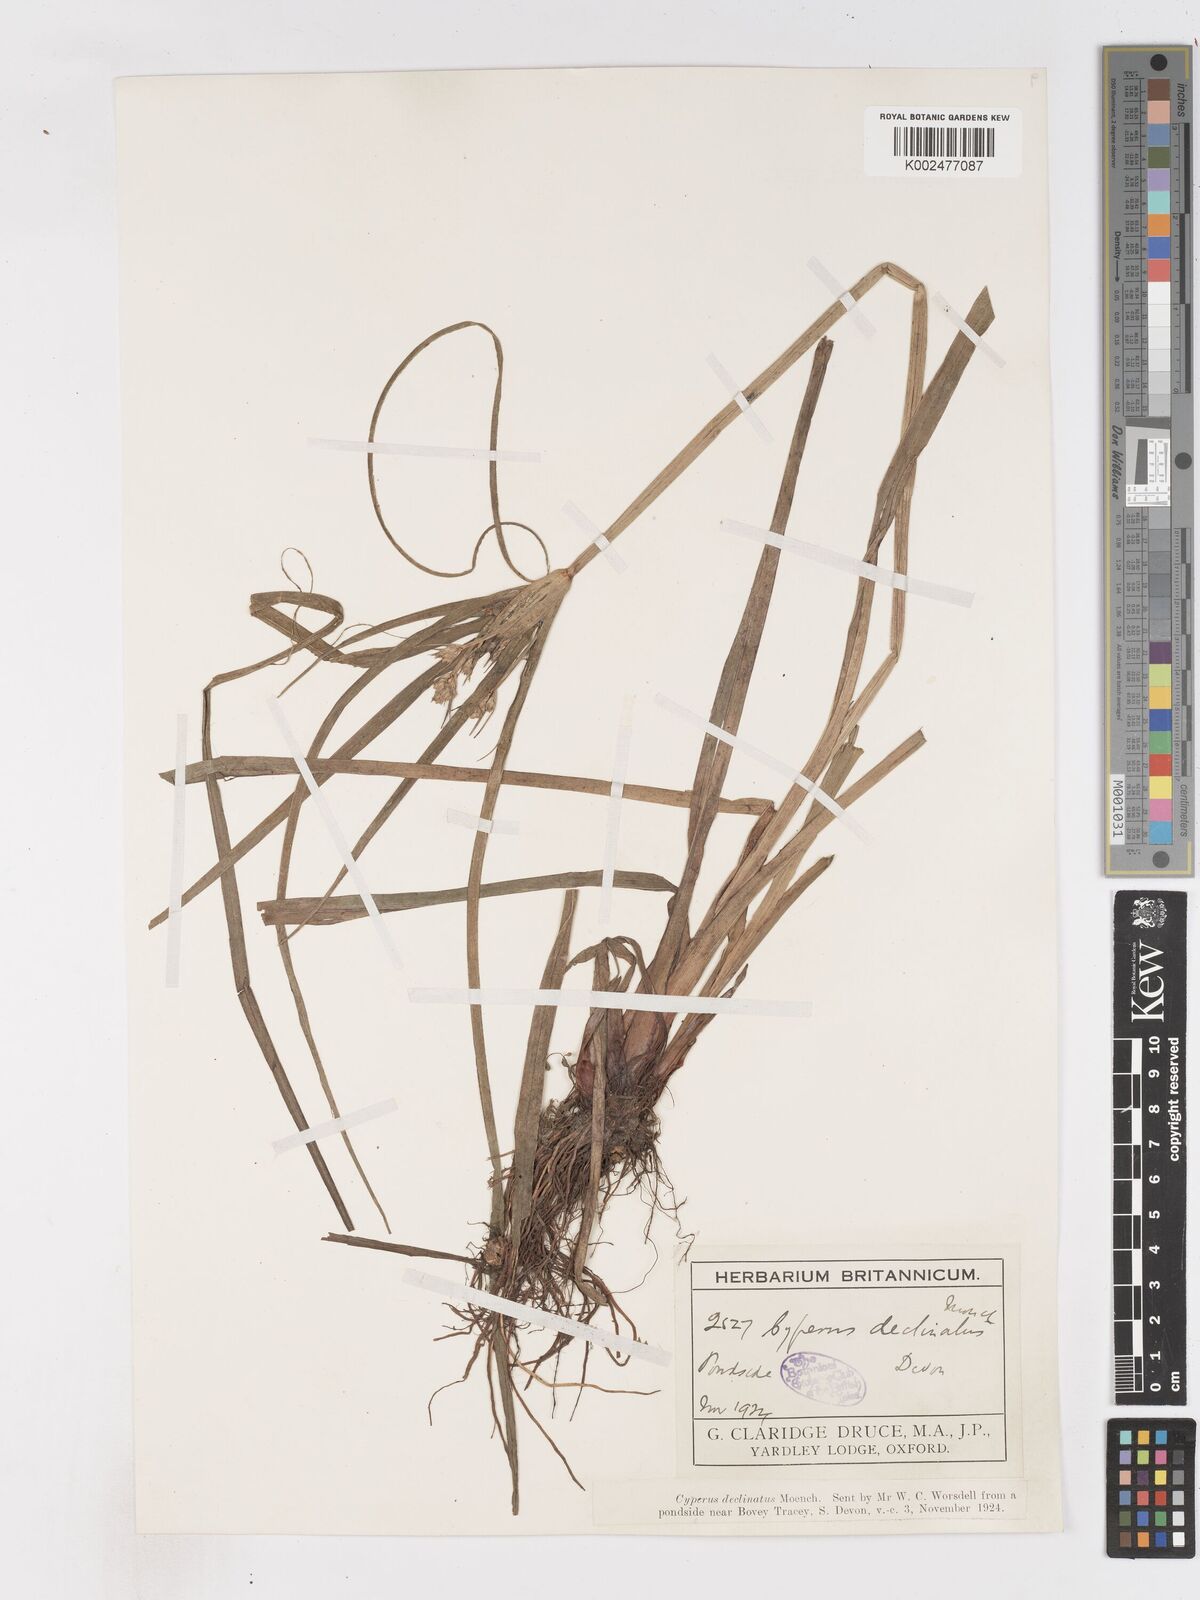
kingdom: Plantae
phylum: Tracheophyta
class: Liliopsida
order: Poales
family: Cyperaceae
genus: Cyperus
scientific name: Cyperus eragrostis
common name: Tall flatsedge
